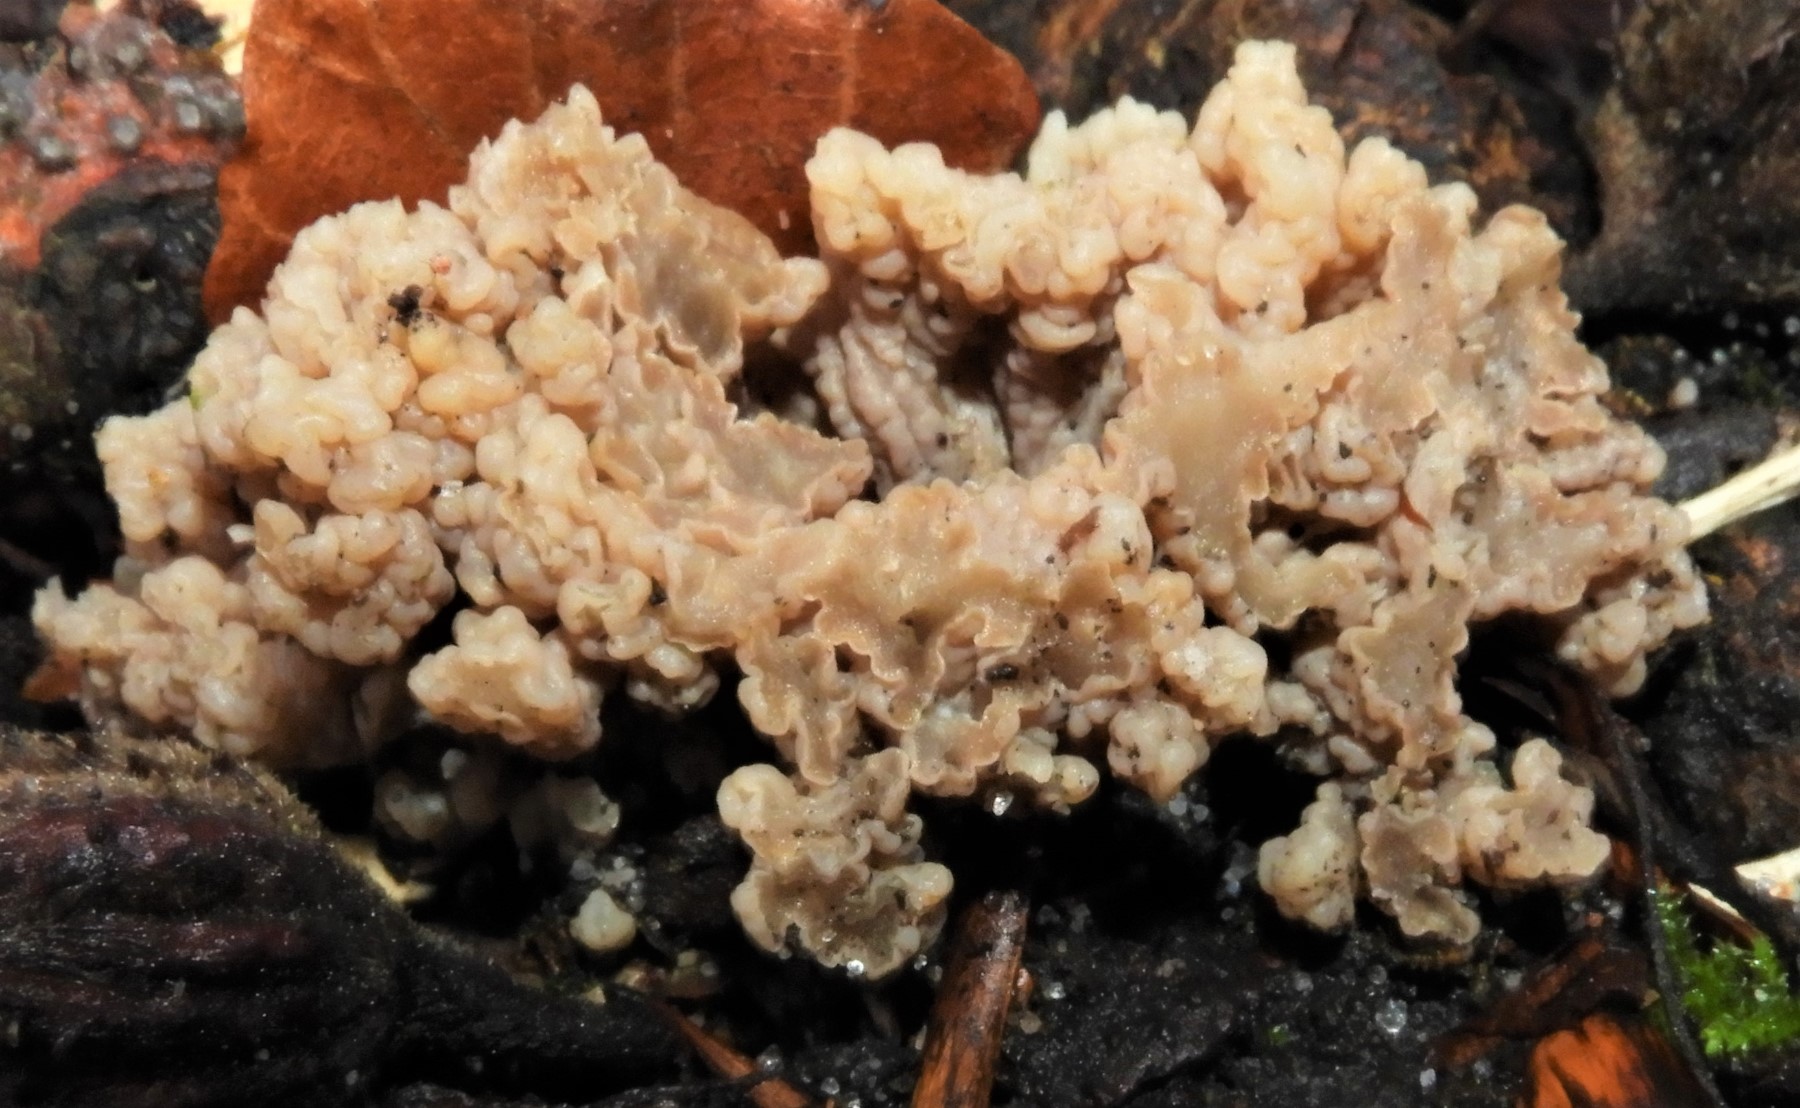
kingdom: Fungi
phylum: Basidiomycota
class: Agaricomycetes
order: Cantharellales
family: Hydnaceae
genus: Clavulina
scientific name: Clavulina
